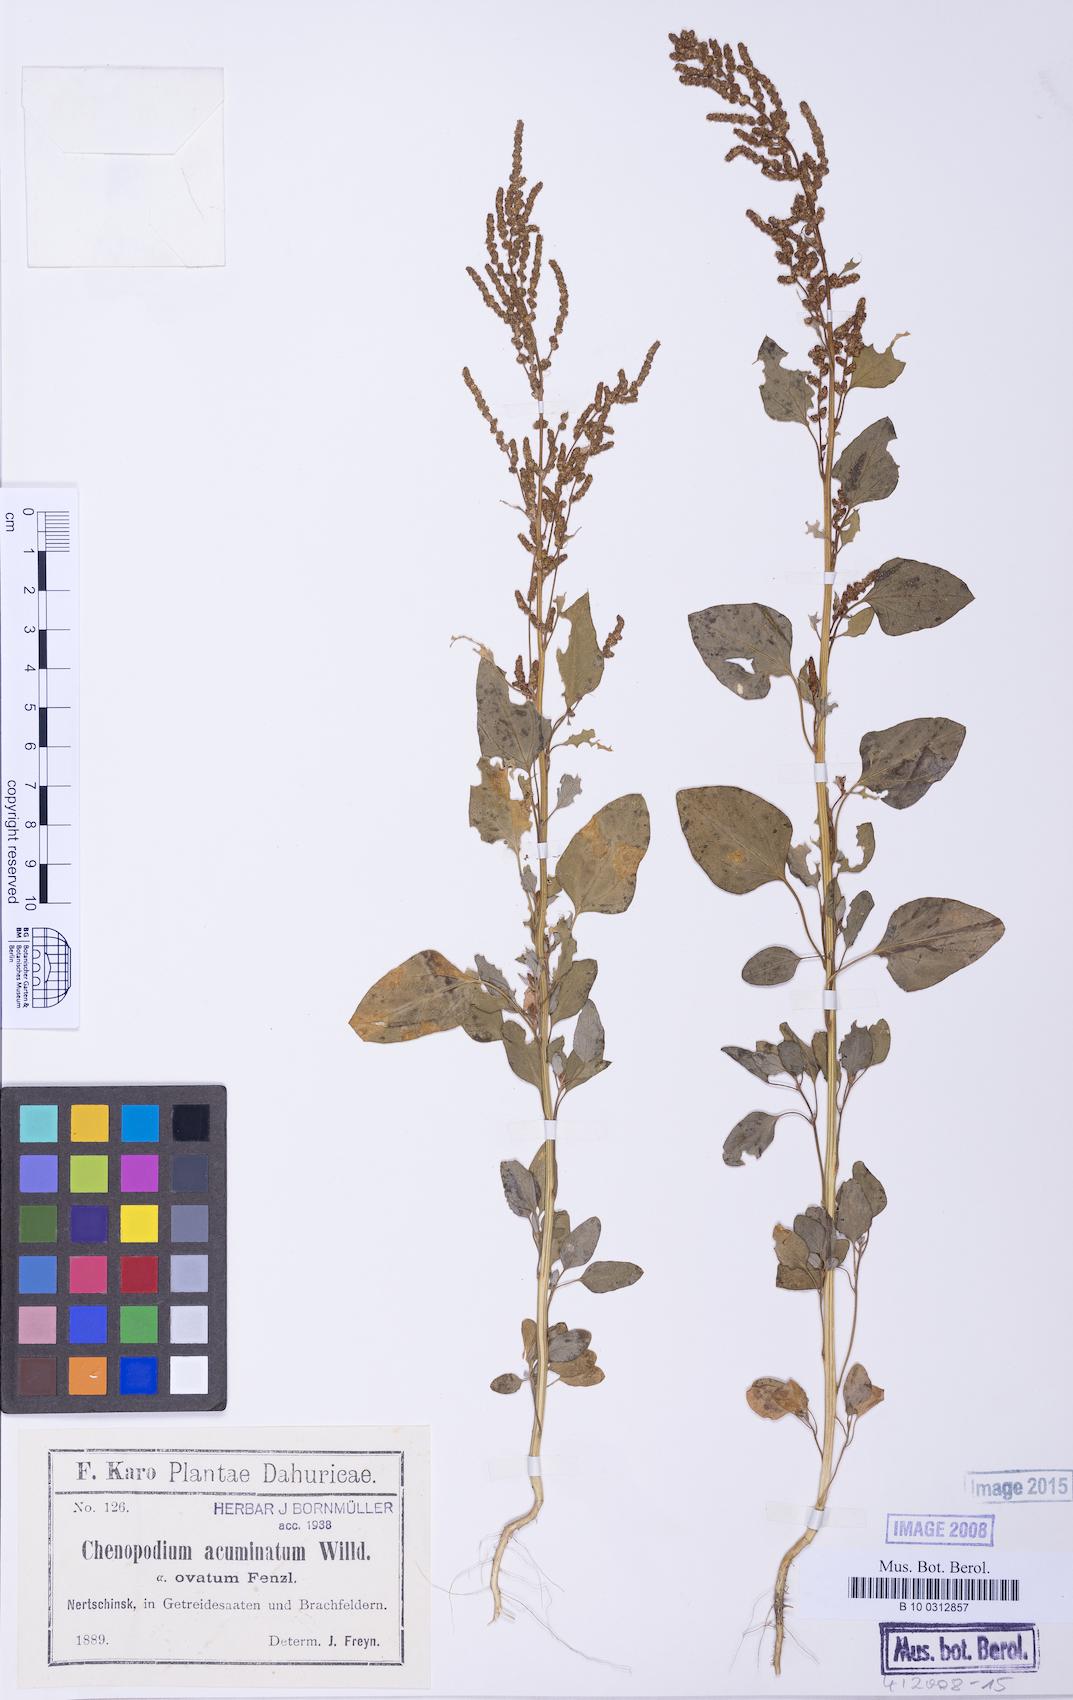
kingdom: Plantae
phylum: Tracheophyta
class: Magnoliopsida
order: Caryophyllales
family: Amaranthaceae
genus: Chenopodium
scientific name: Chenopodium acuminatum
